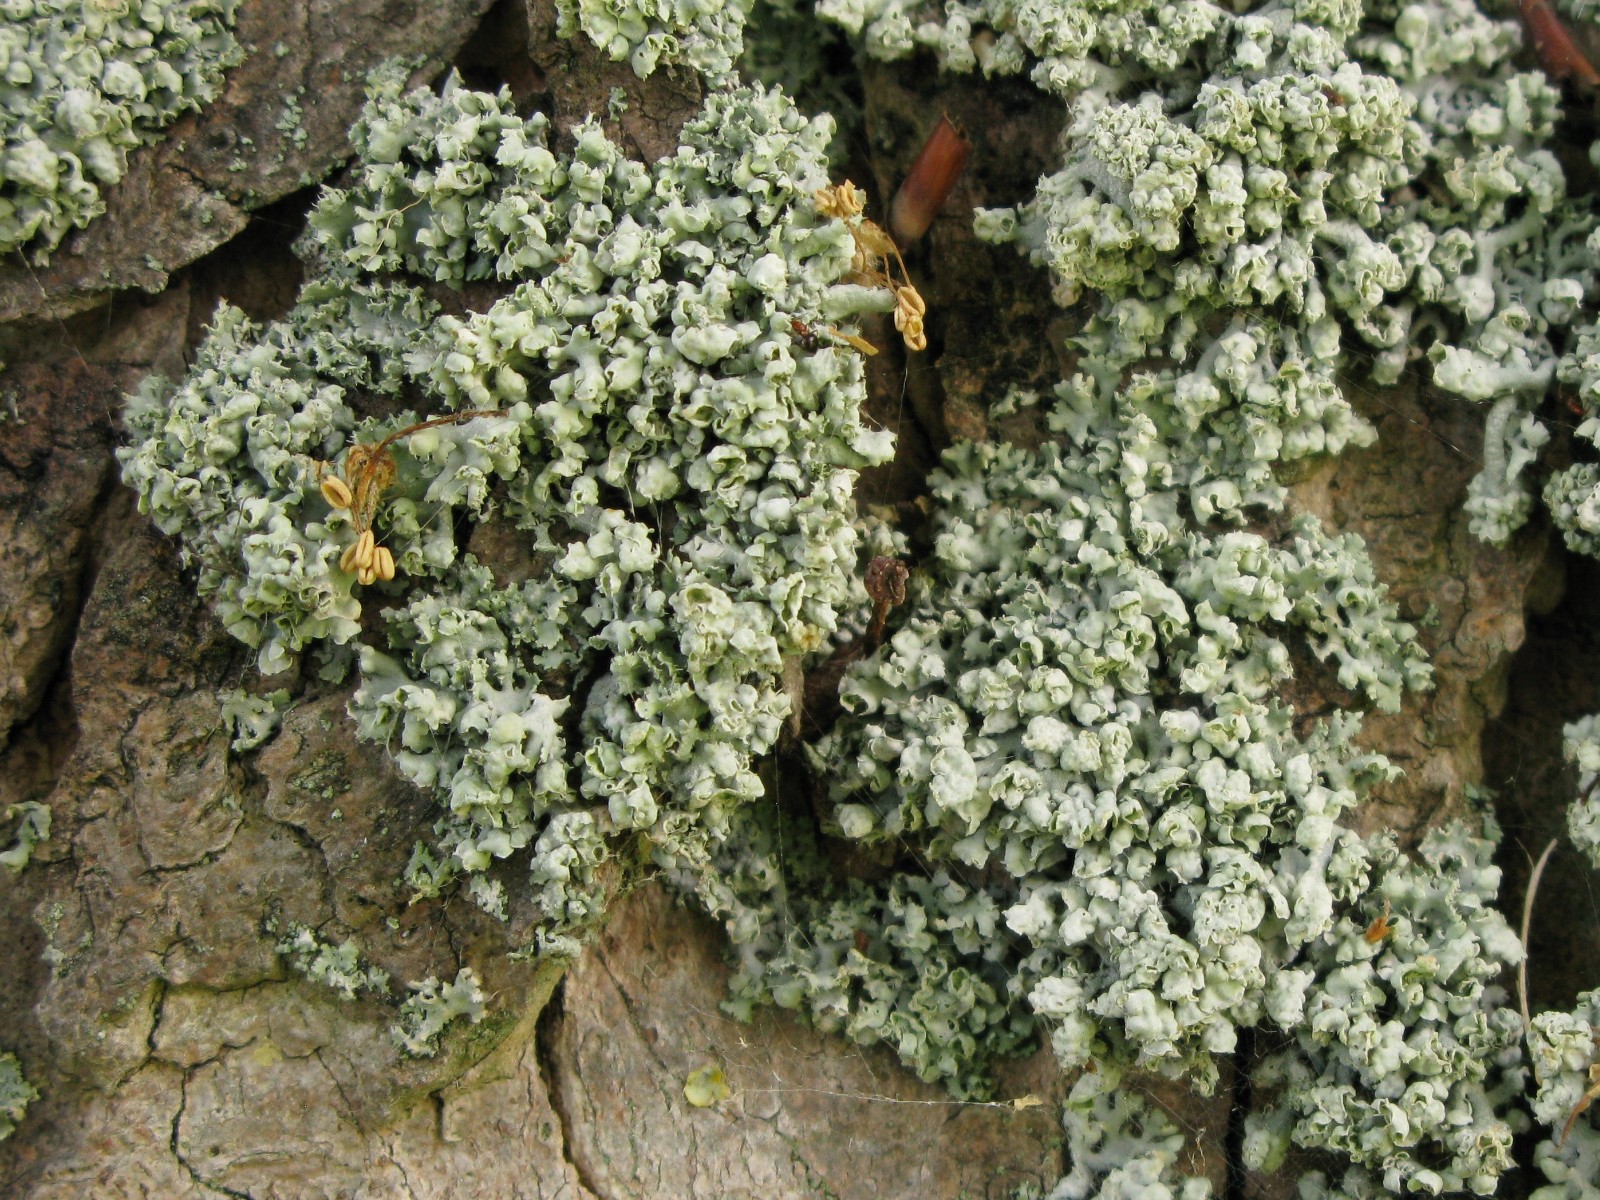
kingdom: Fungi
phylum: Ascomycota
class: Lecanoromycetes
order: Caliciales
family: Physciaceae
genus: Physcia
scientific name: Physcia adscendens
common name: hætte-rosetlav
